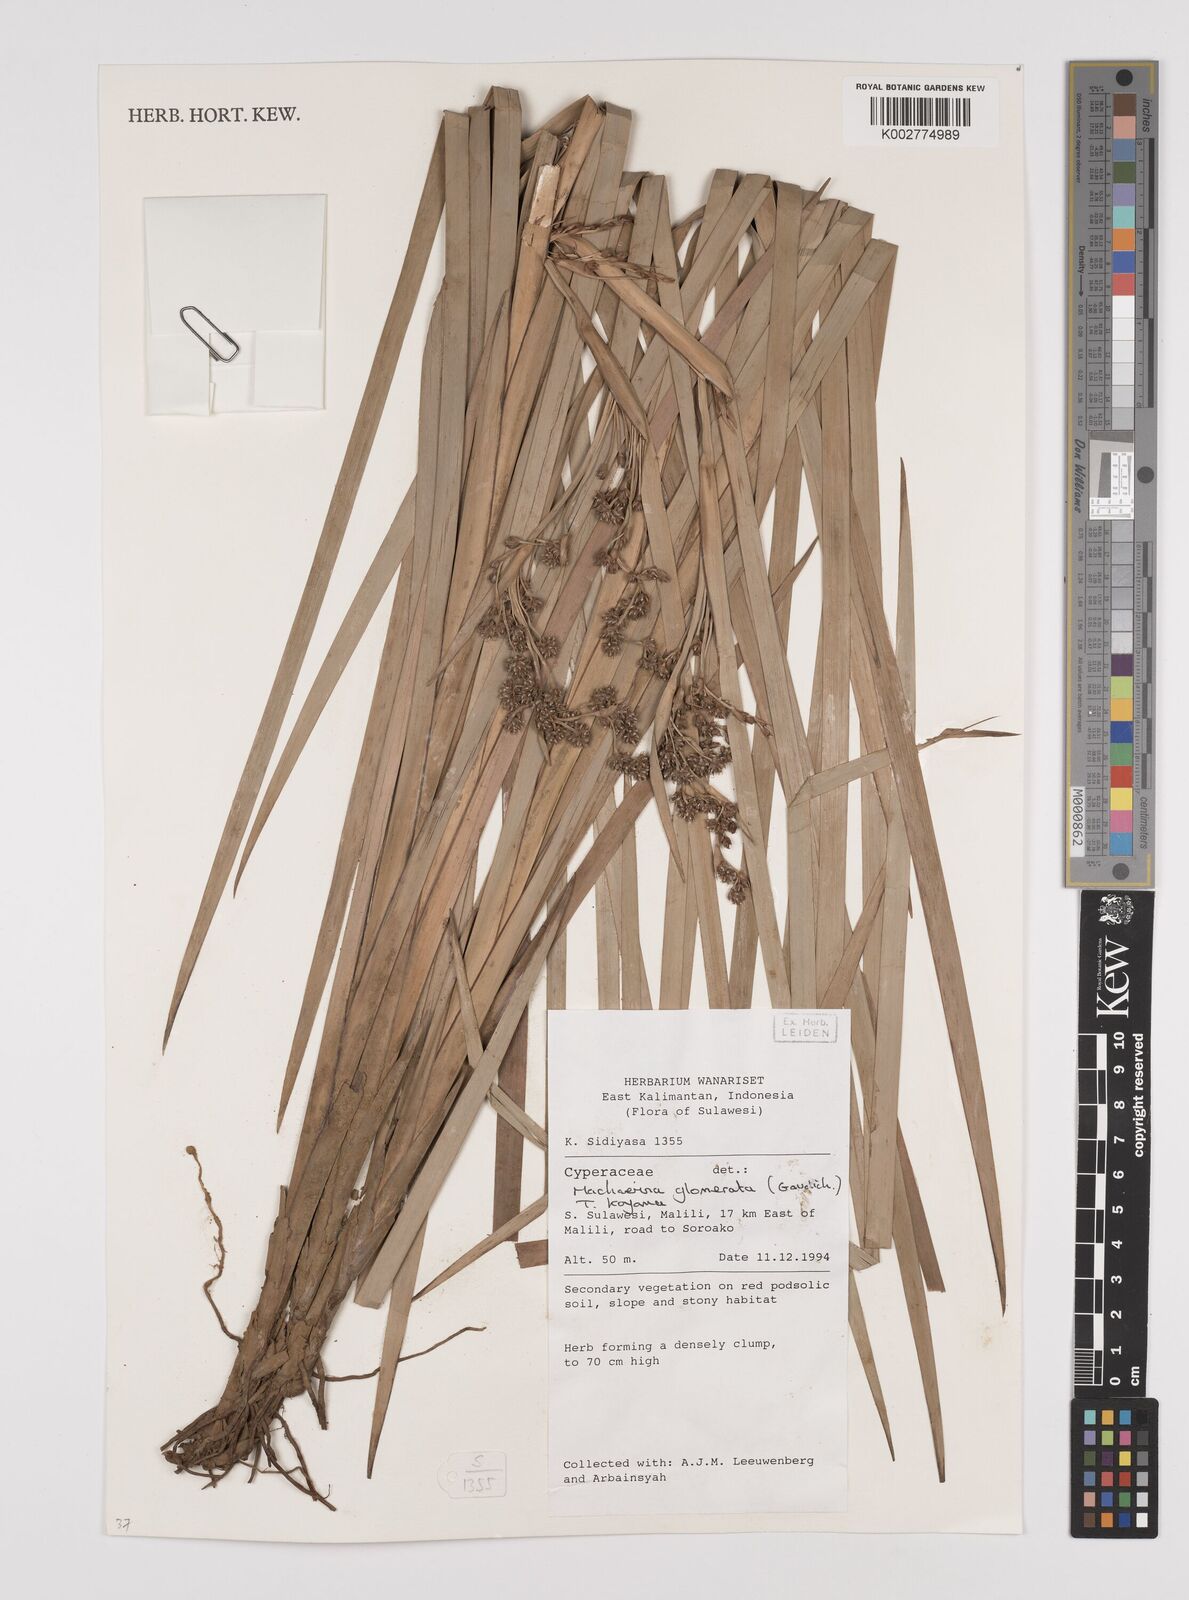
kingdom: Plantae
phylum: Tracheophyta
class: Liliopsida
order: Poales
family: Cyperaceae
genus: Machaerina
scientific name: Machaerina glomerata
